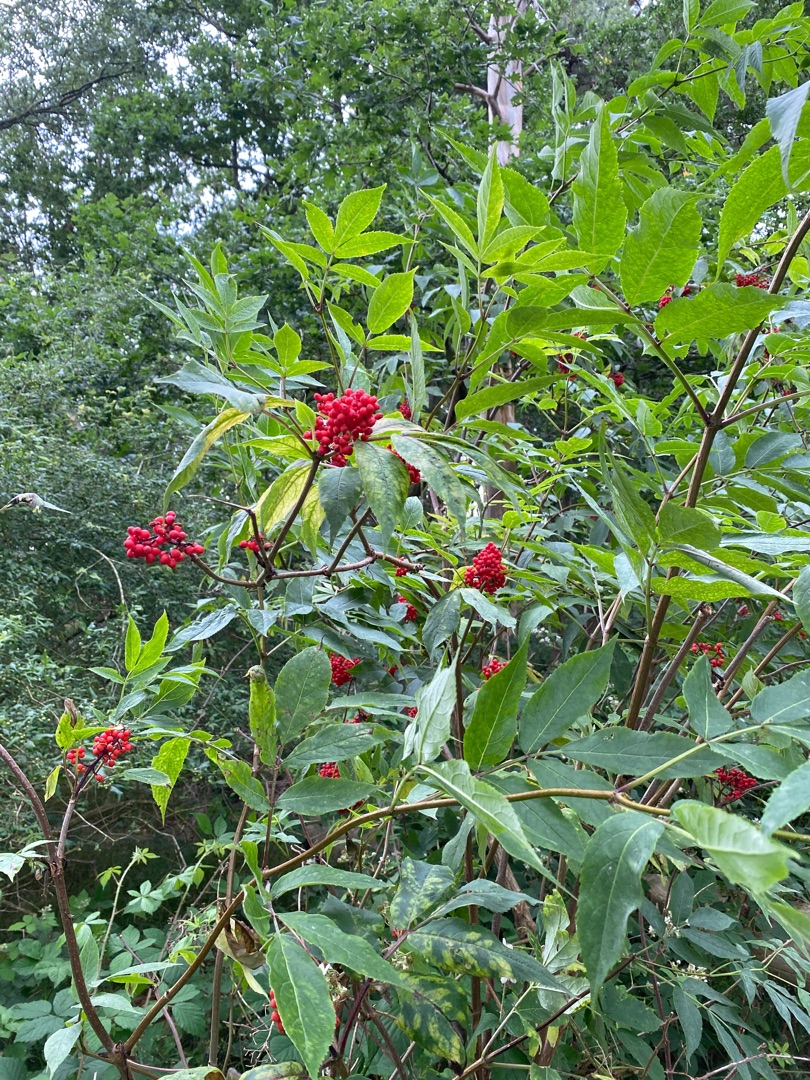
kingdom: Plantae
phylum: Tracheophyta
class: Magnoliopsida
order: Dipsacales
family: Viburnaceae
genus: Sambucus
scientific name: Sambucus racemosa
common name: Drue-hyld
